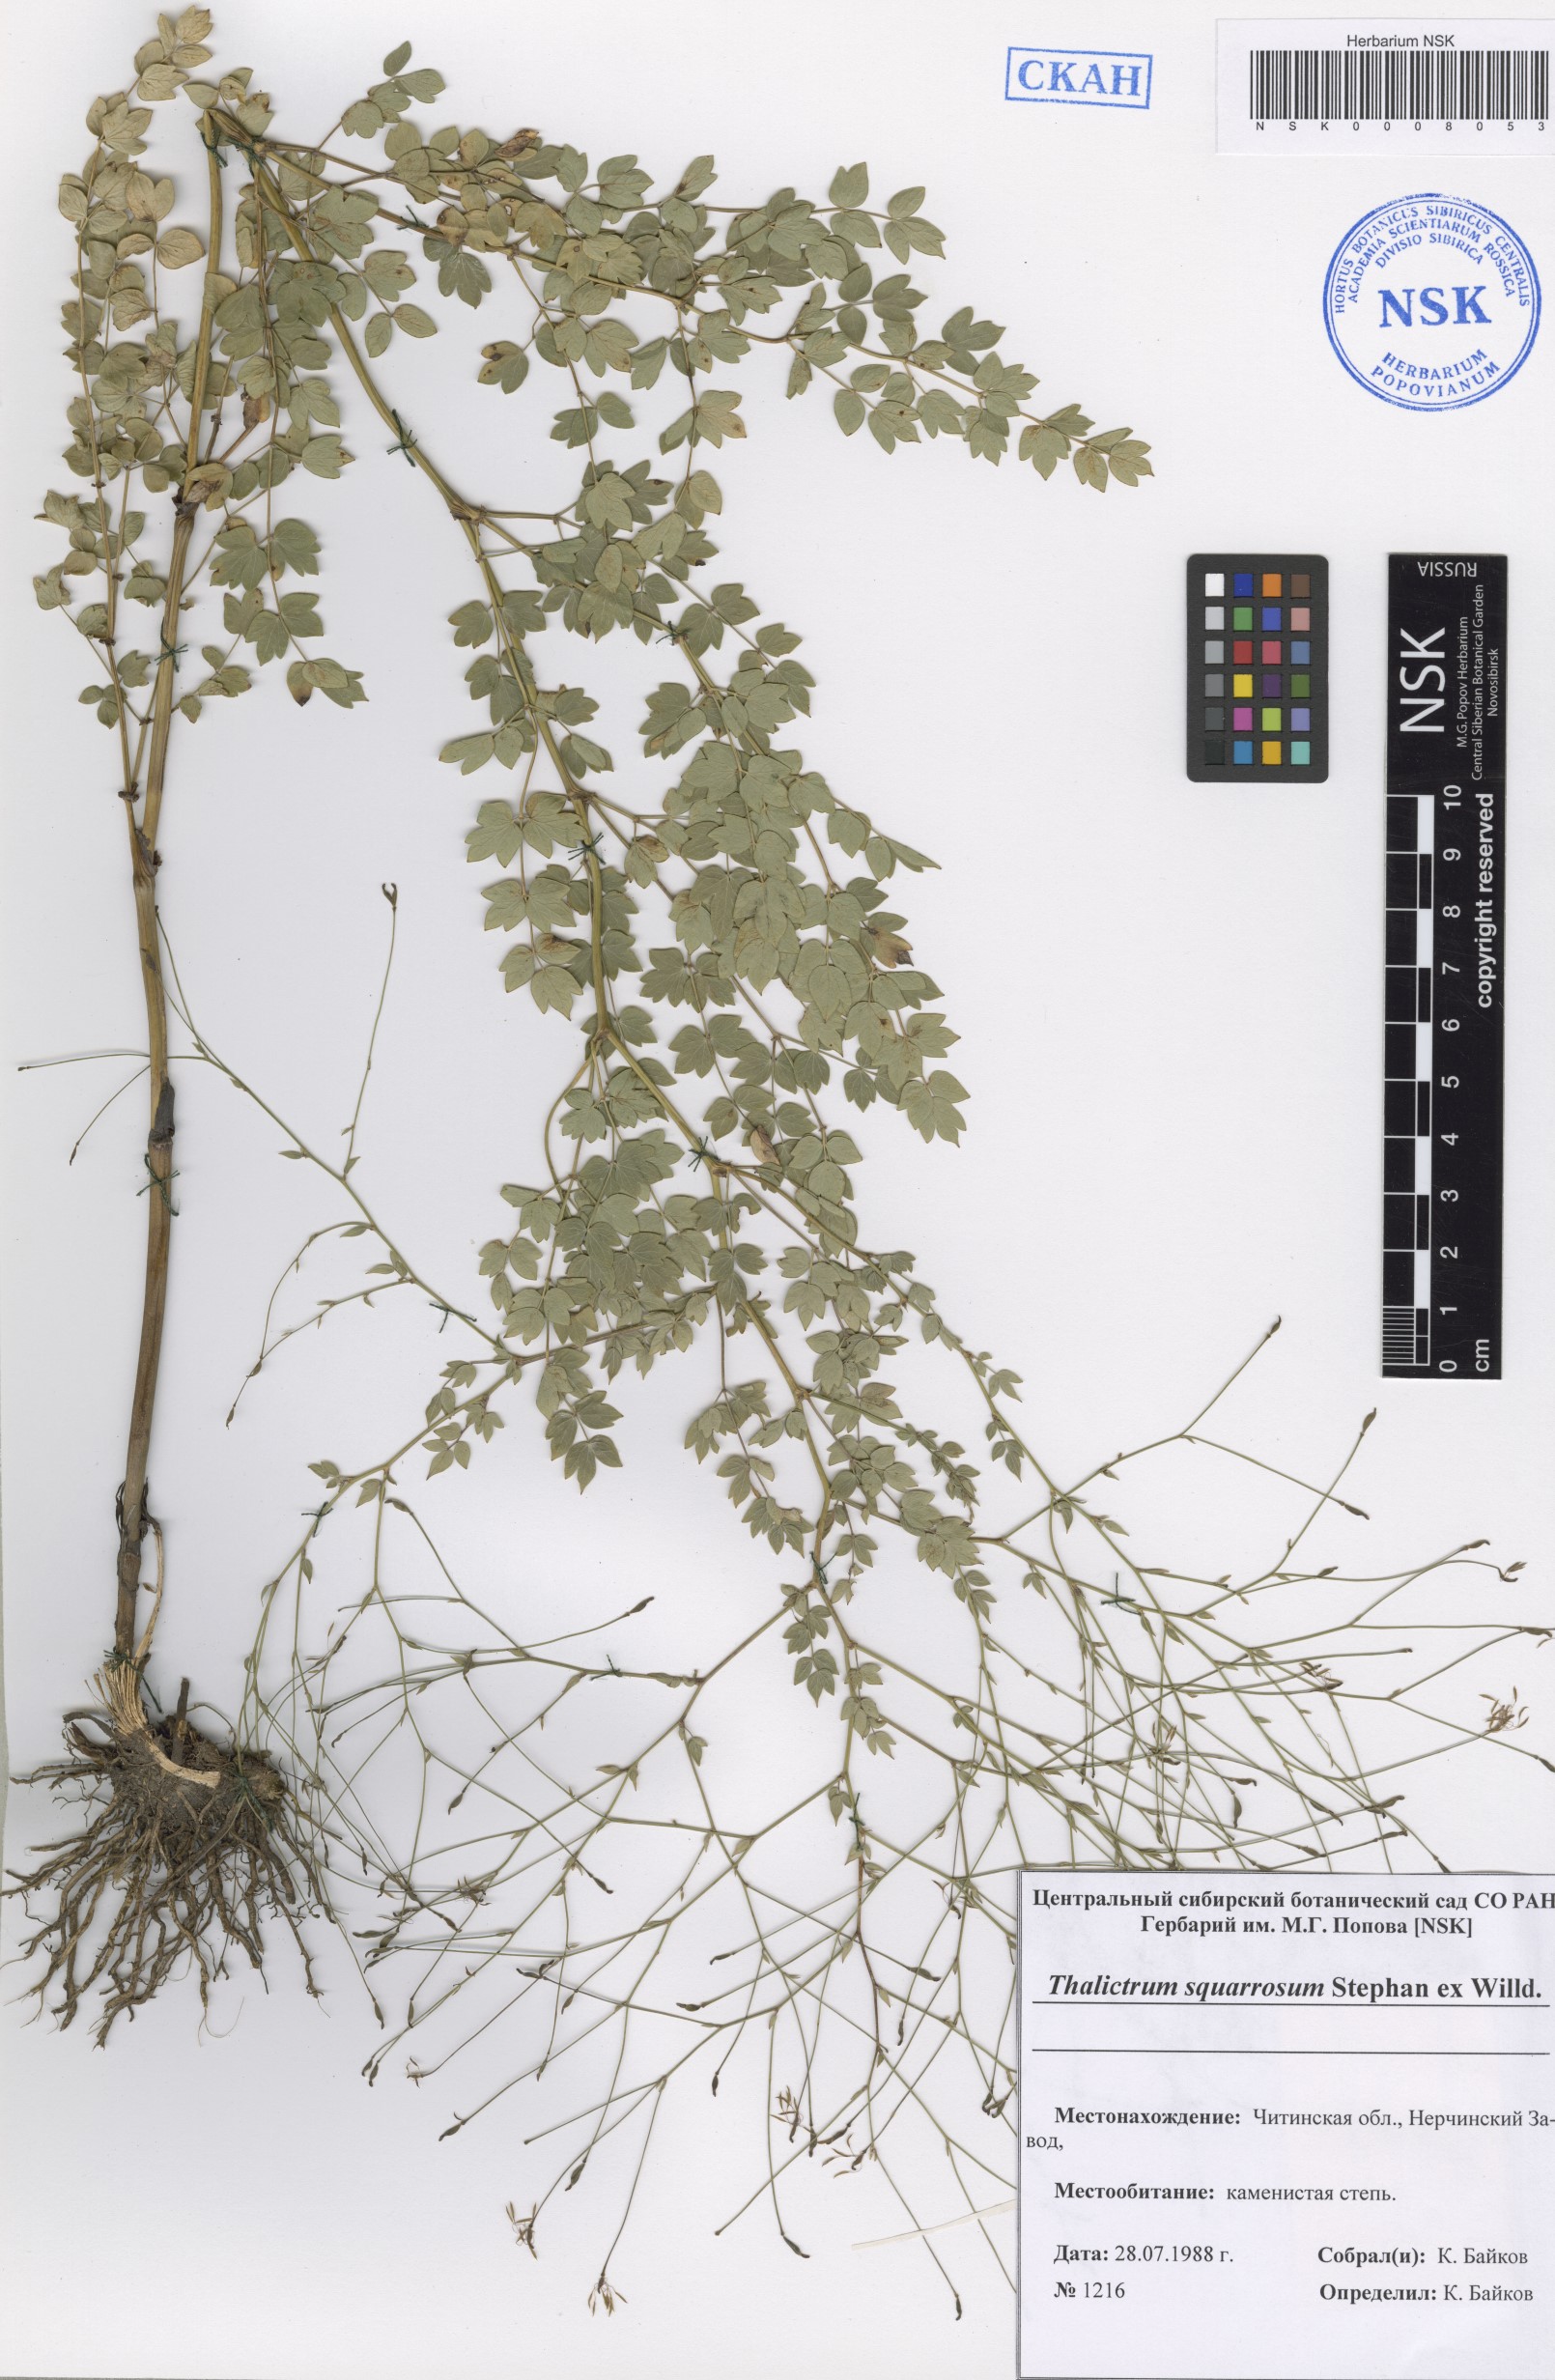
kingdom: Plantae
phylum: Tracheophyta
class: Magnoliopsida
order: Ranunculales
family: Ranunculaceae
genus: Thalictrum
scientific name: Thalictrum squarrosum
